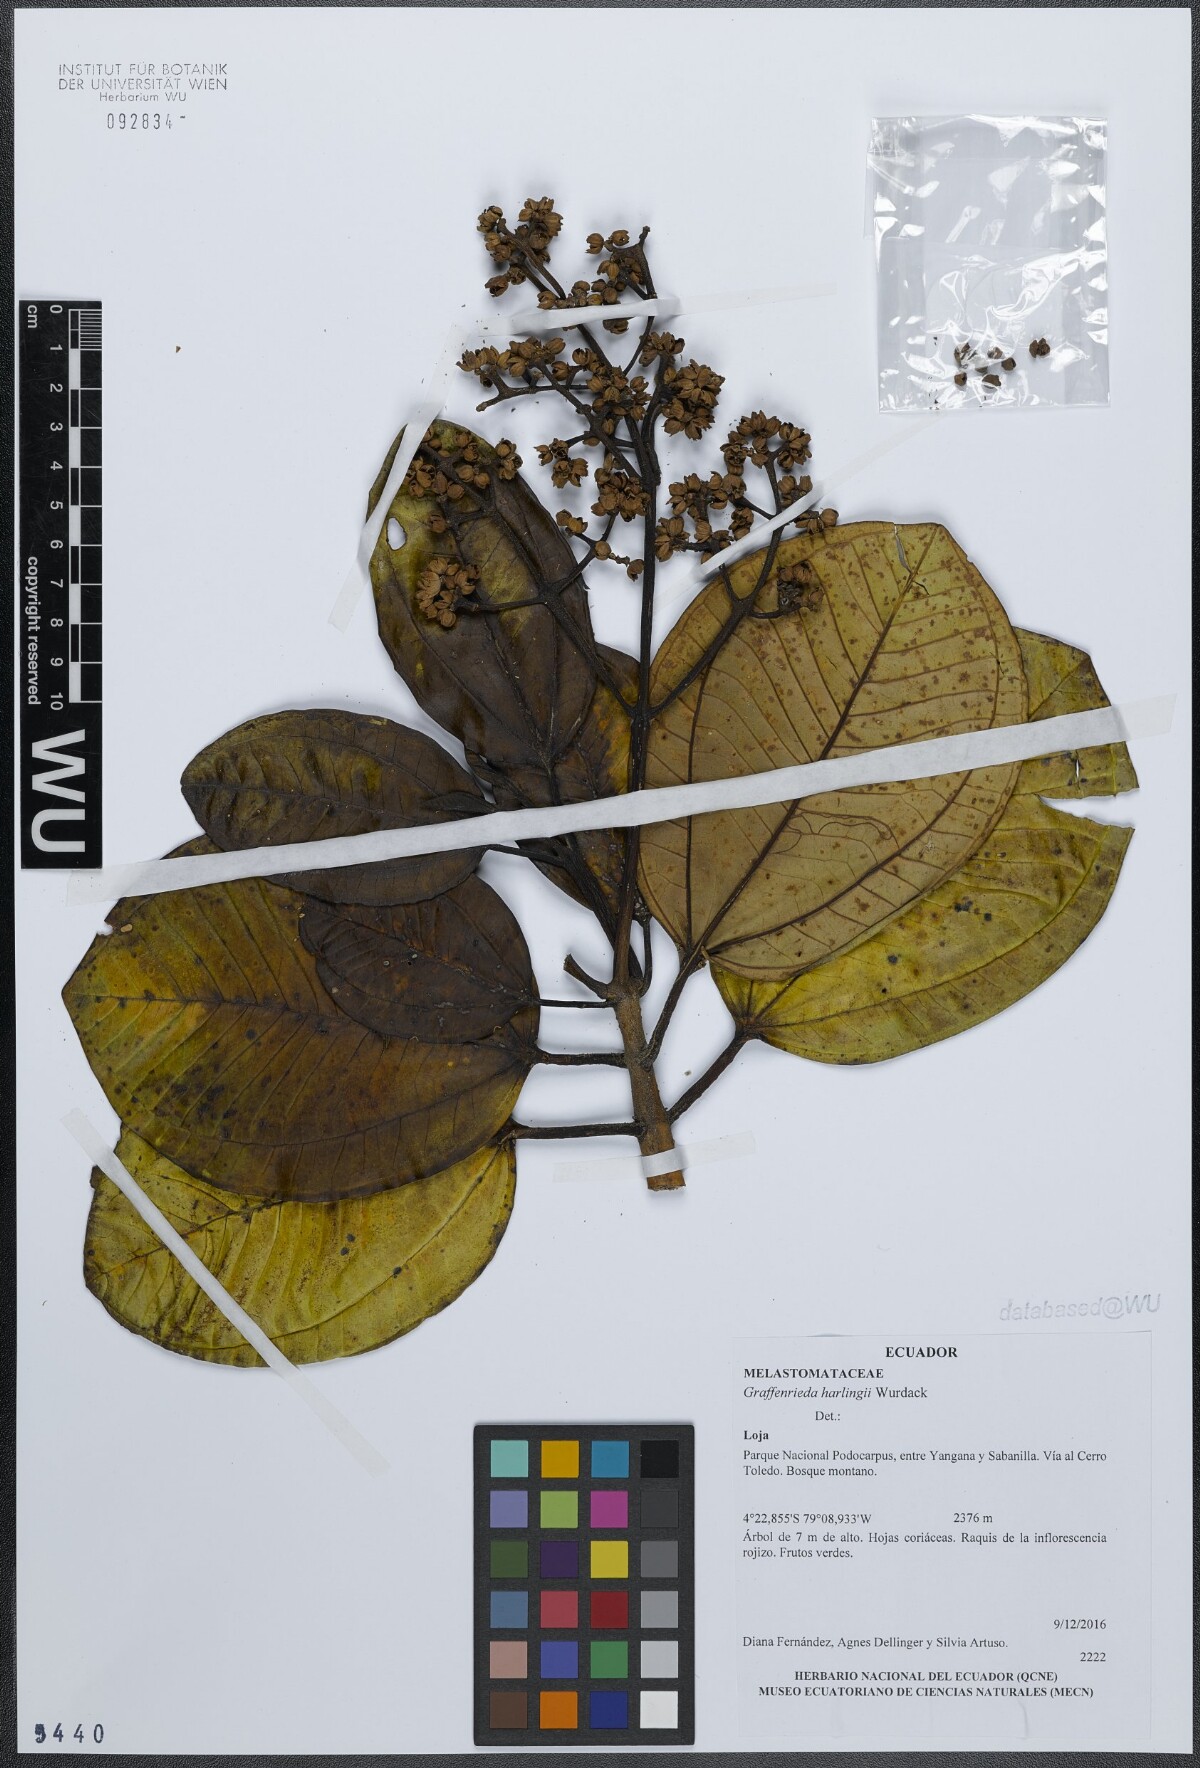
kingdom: Plantae
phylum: Tracheophyta
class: Magnoliopsida
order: Myrtales
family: Melastomataceae
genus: Graffenrieda
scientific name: Graffenrieda harlingii
